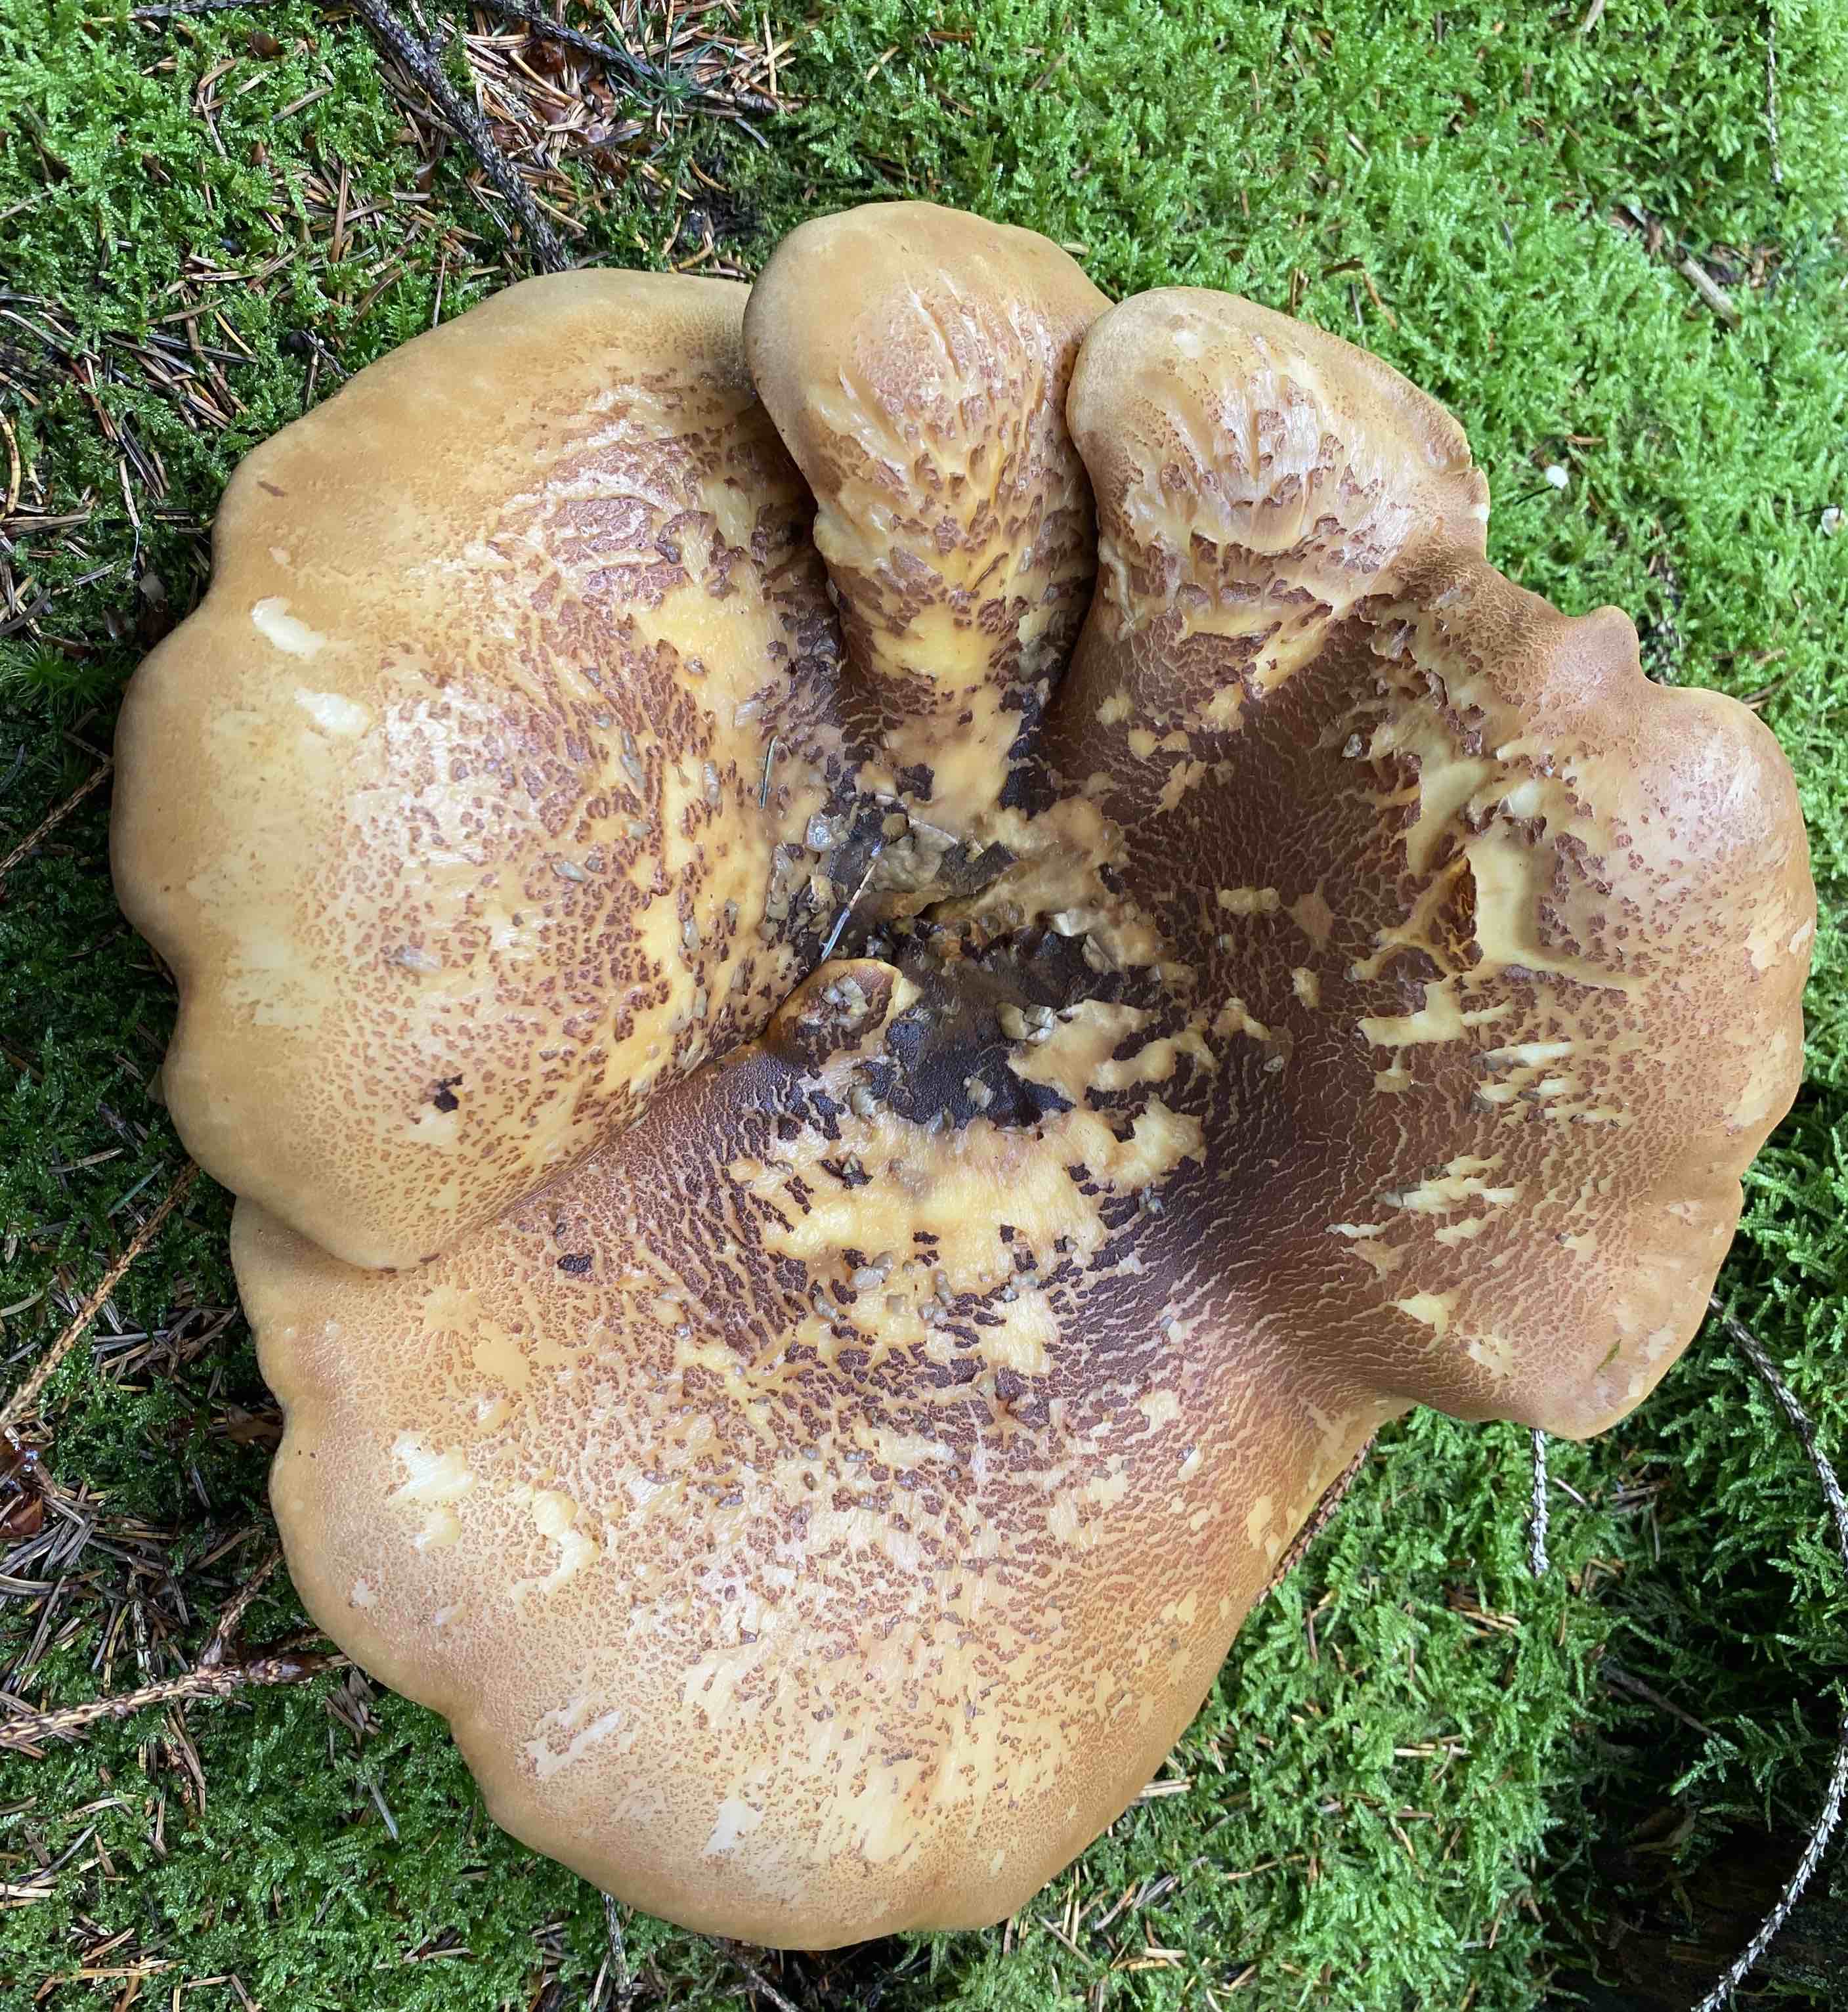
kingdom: Fungi
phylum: Basidiomycota
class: Agaricomycetes
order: Boletales
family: Tapinellaceae
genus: Tapinella
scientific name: Tapinella atrotomentosa
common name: sortfiltet viftesvamp
